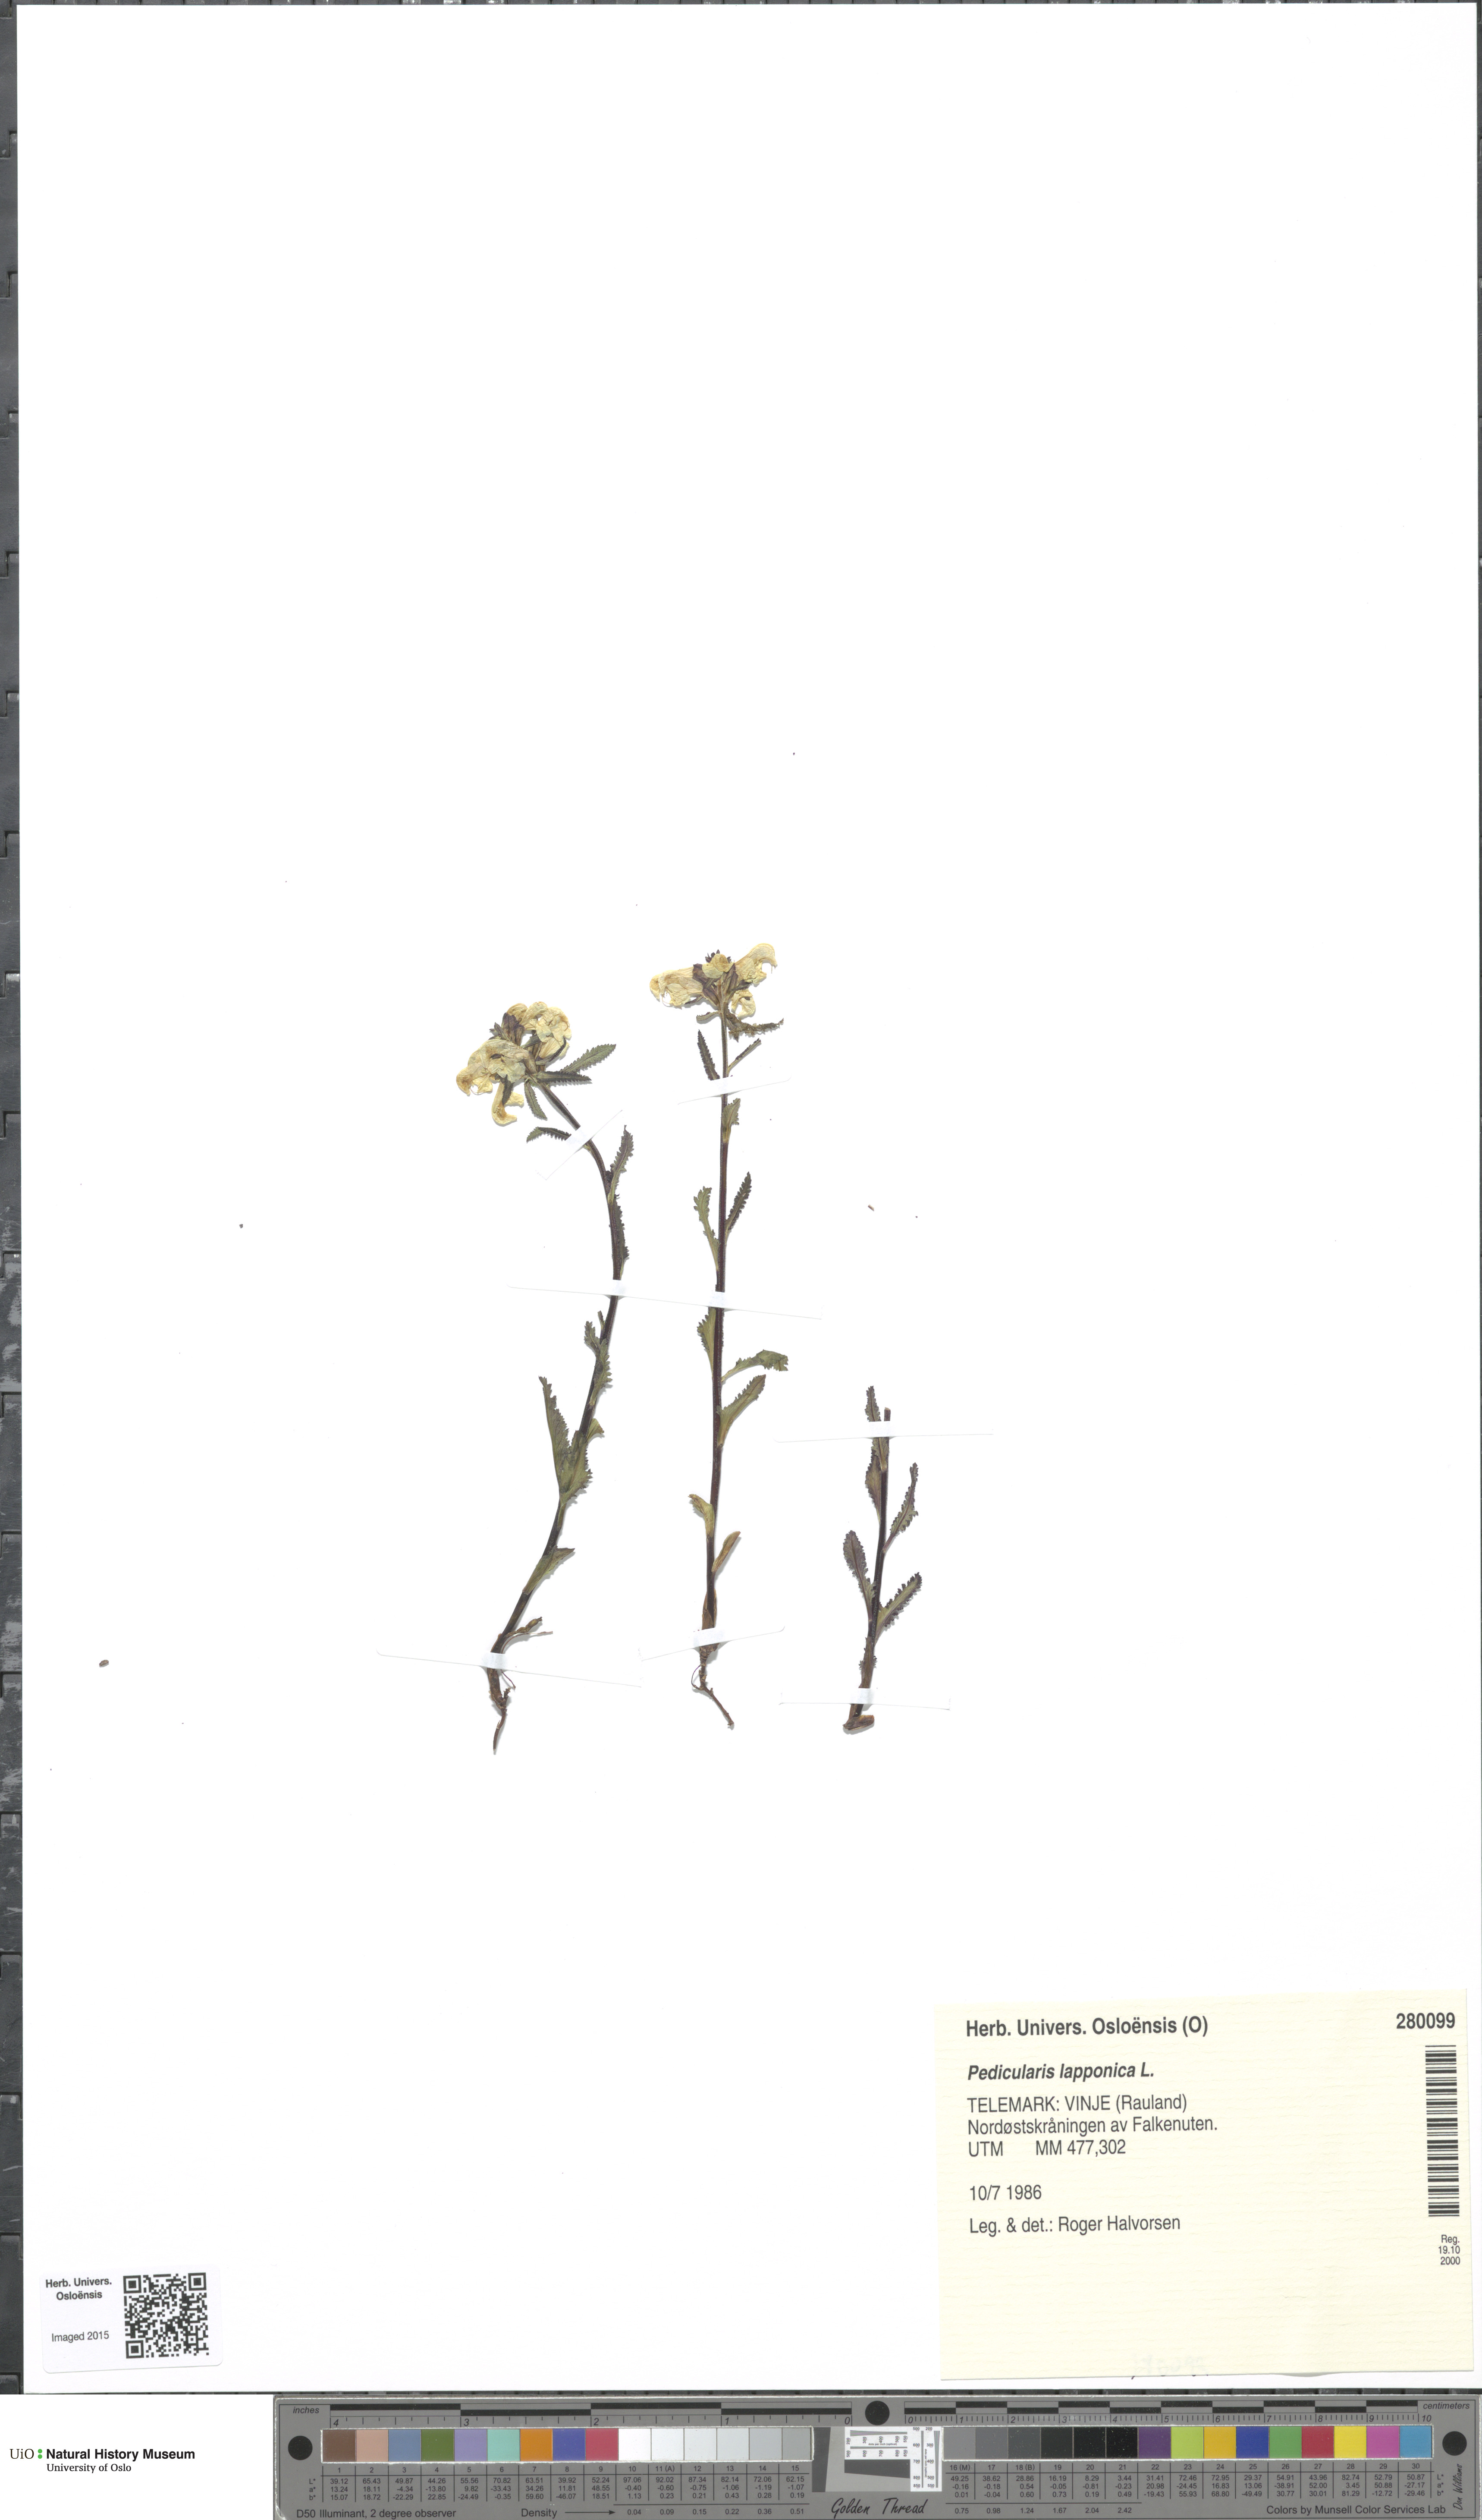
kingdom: Plantae
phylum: Tracheophyta
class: Magnoliopsida
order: Lamiales
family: Orobanchaceae
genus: Pedicularis
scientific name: Pedicularis lapponica
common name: Lapland lousewort
